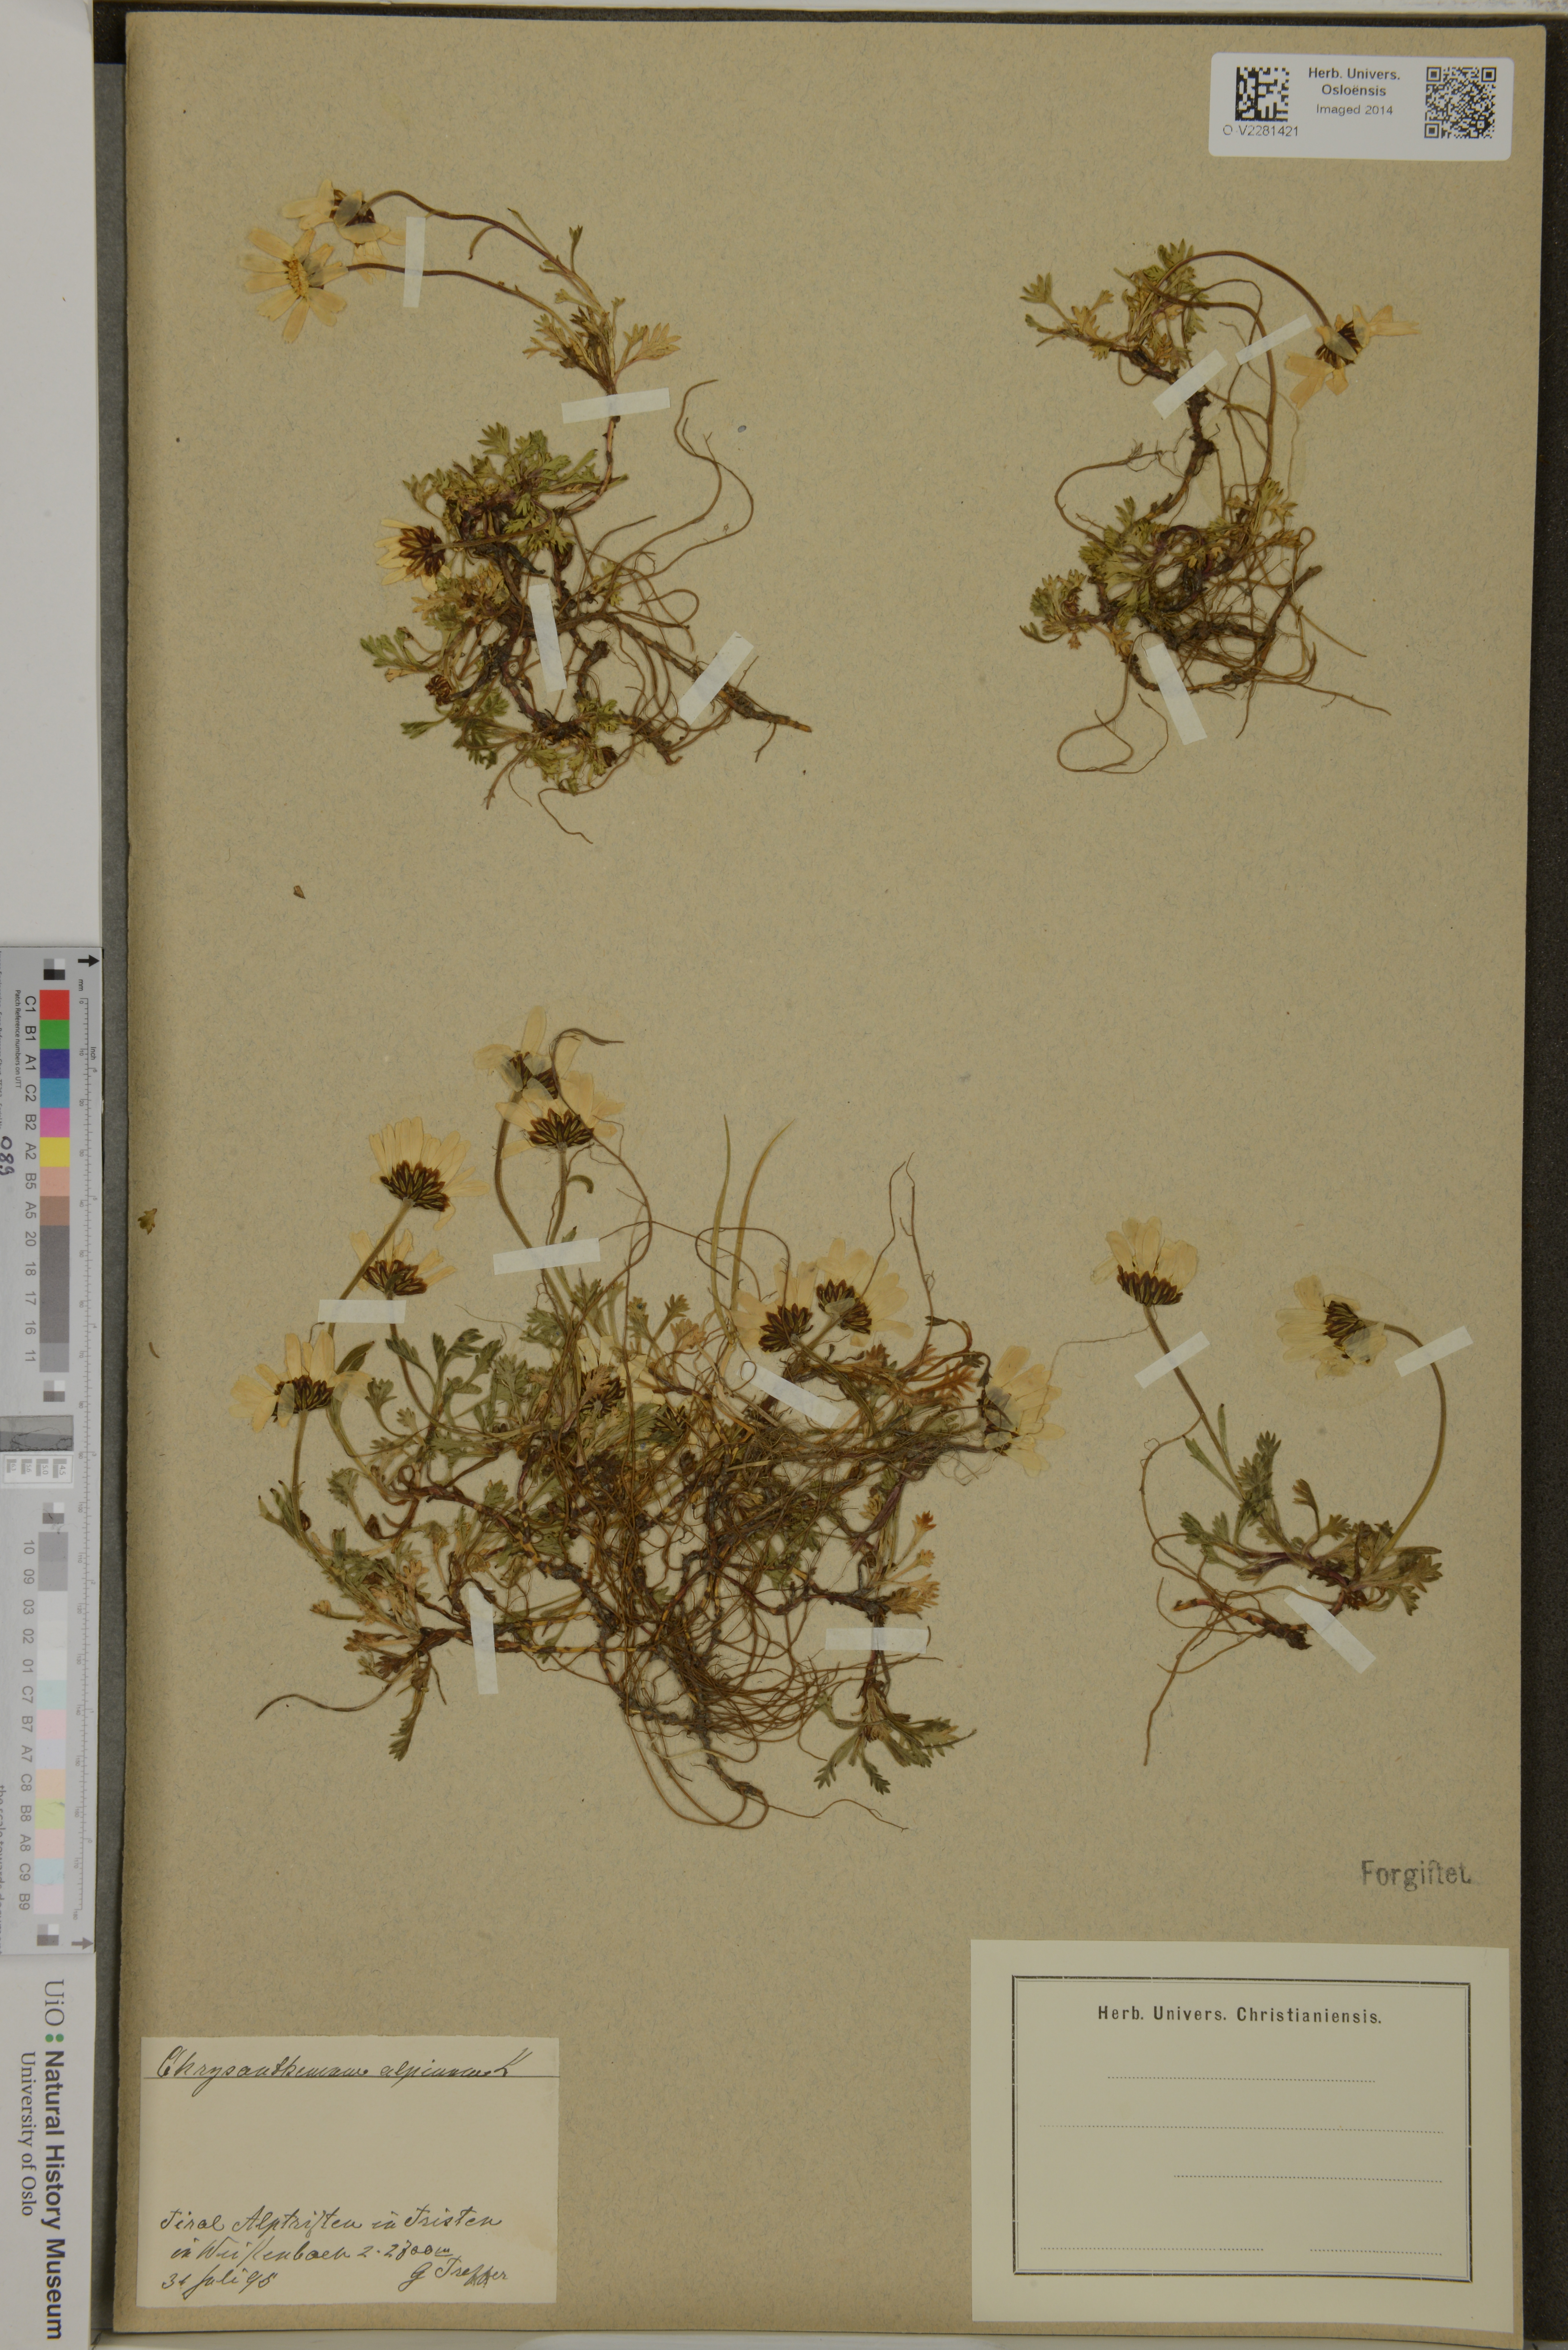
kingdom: Plantae
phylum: Tracheophyta
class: Magnoliopsida
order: Asterales
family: Asteraceae
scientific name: Asteraceae
